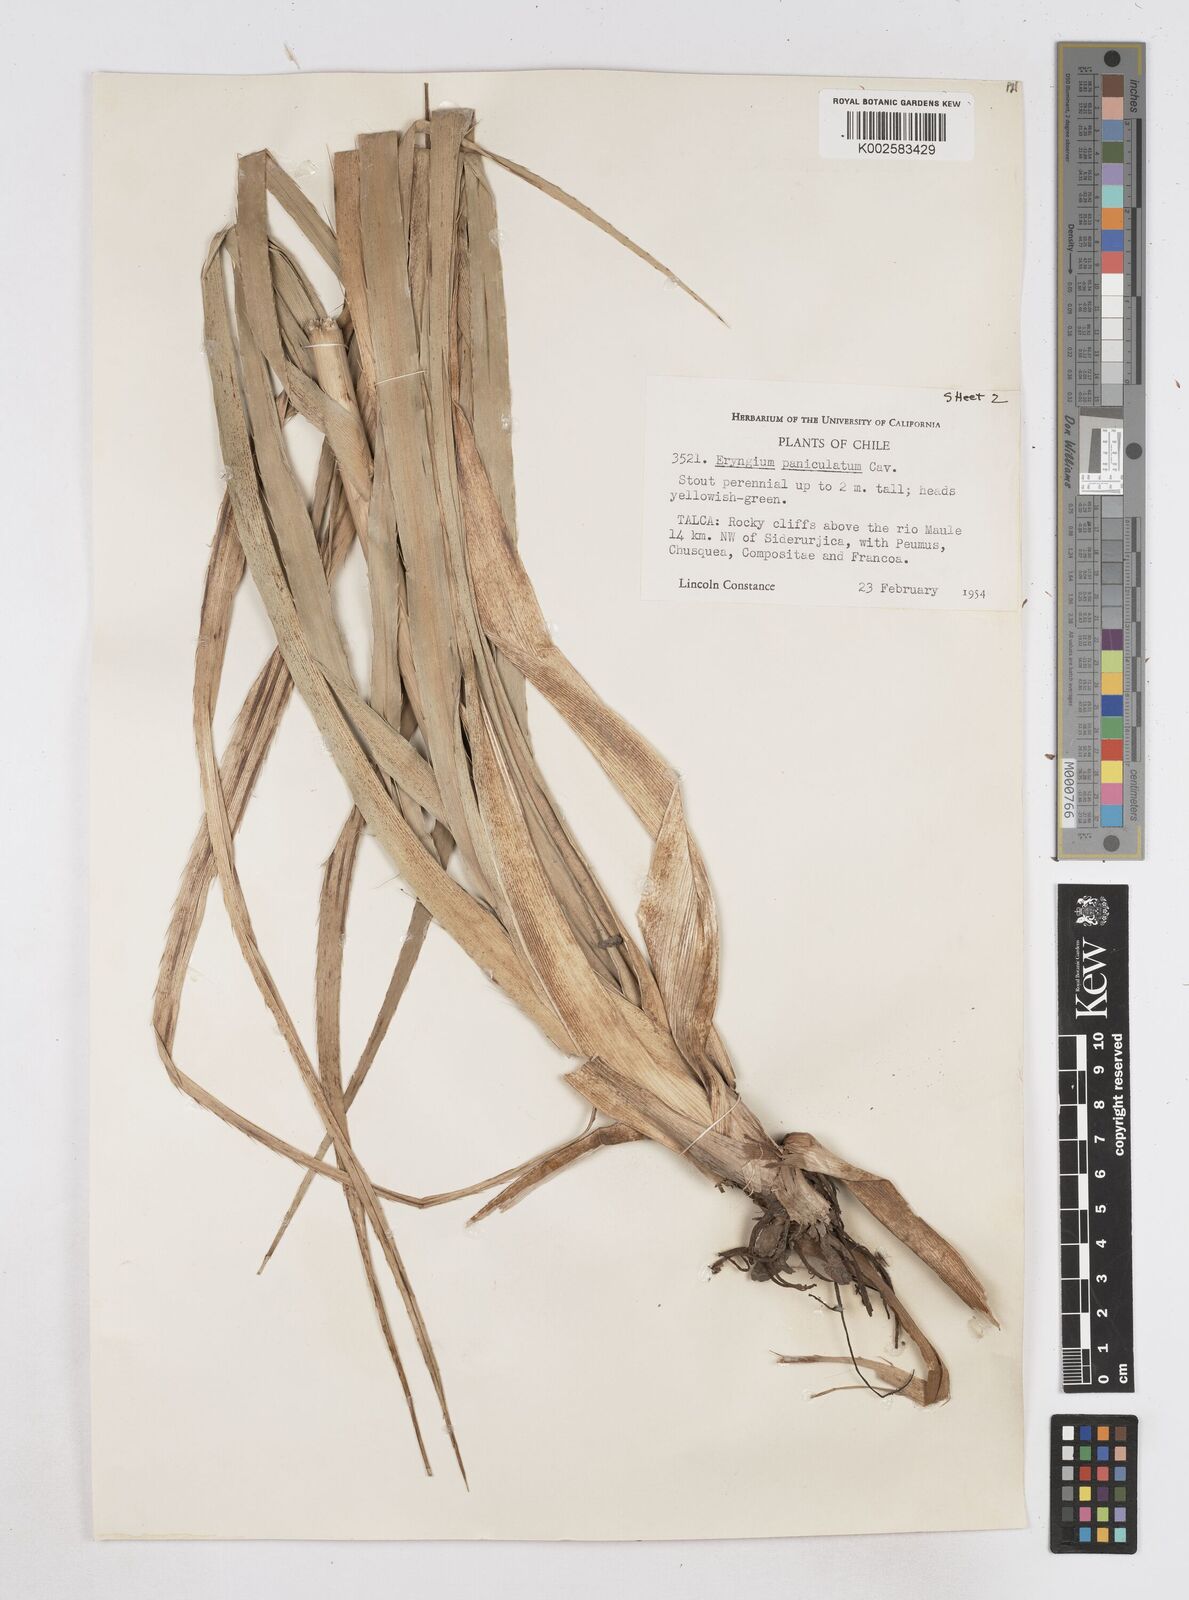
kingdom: Plantae
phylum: Tracheophyta
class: Magnoliopsida
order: Apiales
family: Apiaceae
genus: Eryngium
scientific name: Eryngium humboldtii
